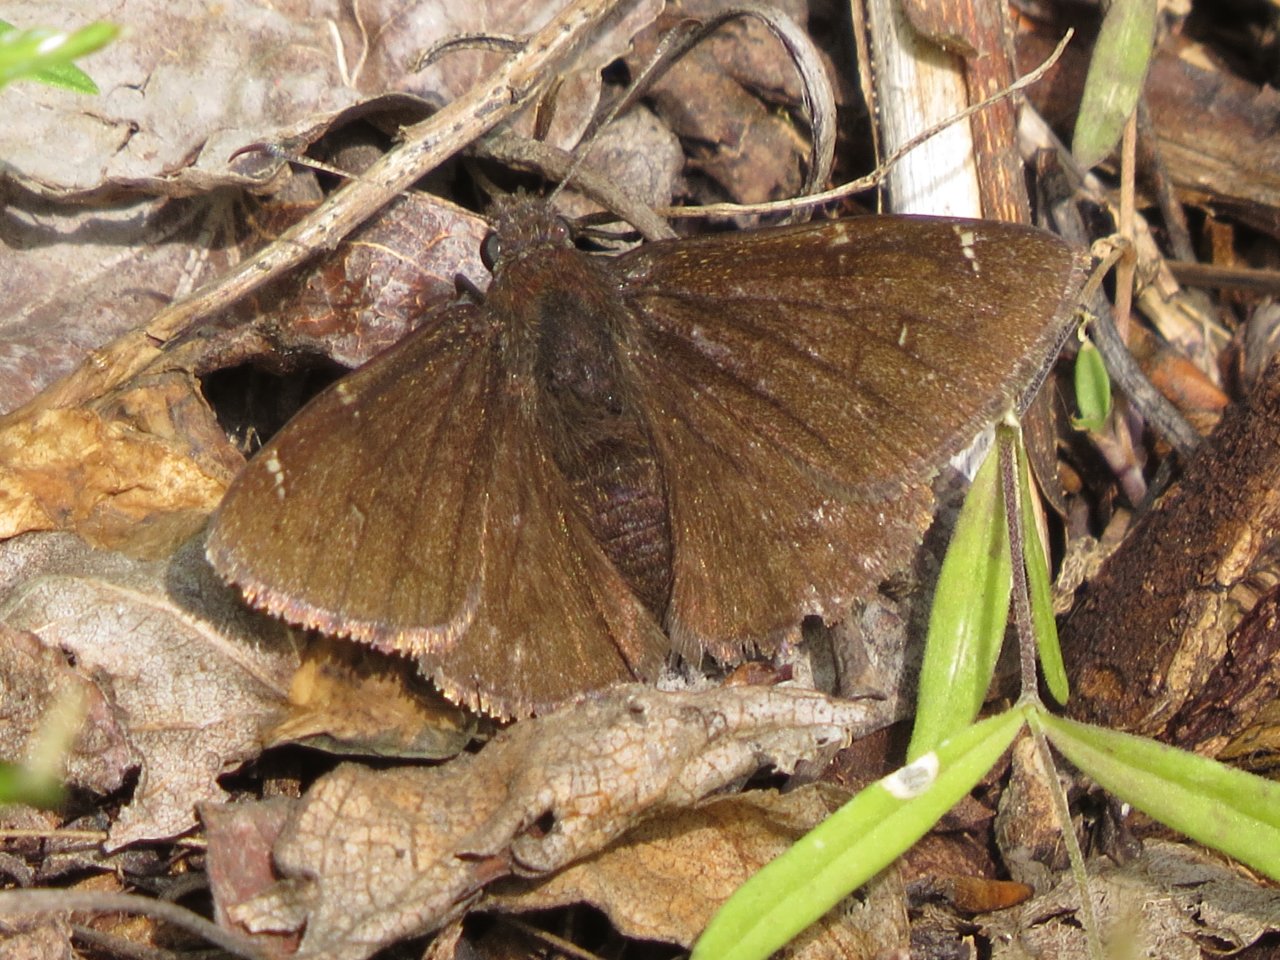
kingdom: Animalia
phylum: Arthropoda
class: Insecta
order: Lepidoptera
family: Hesperiidae
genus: Autochton
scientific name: Autochton
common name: Northern Cloudywing
